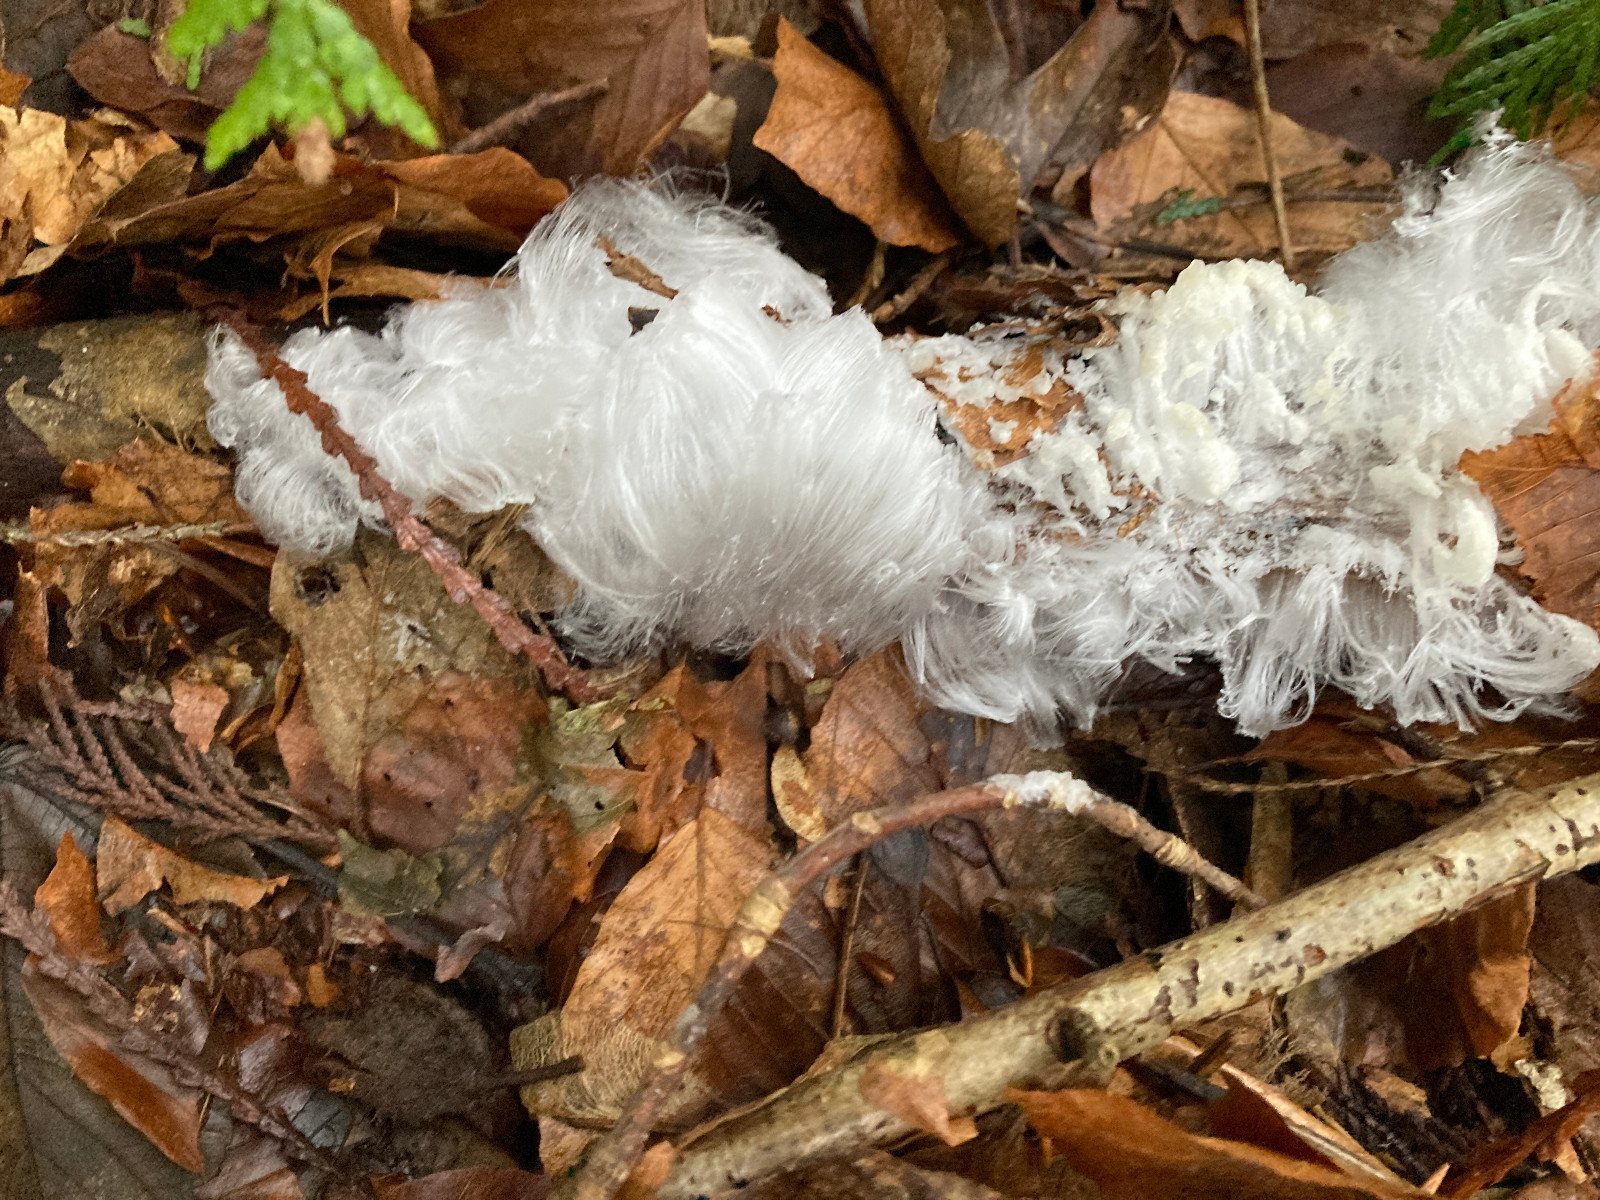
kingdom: Fungi
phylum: Basidiomycota
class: Tremellomycetes
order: Tremellales
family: Exidiaceae
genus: Exidiopsis
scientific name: Exidiopsis effusa
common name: smuk bævrehinde
